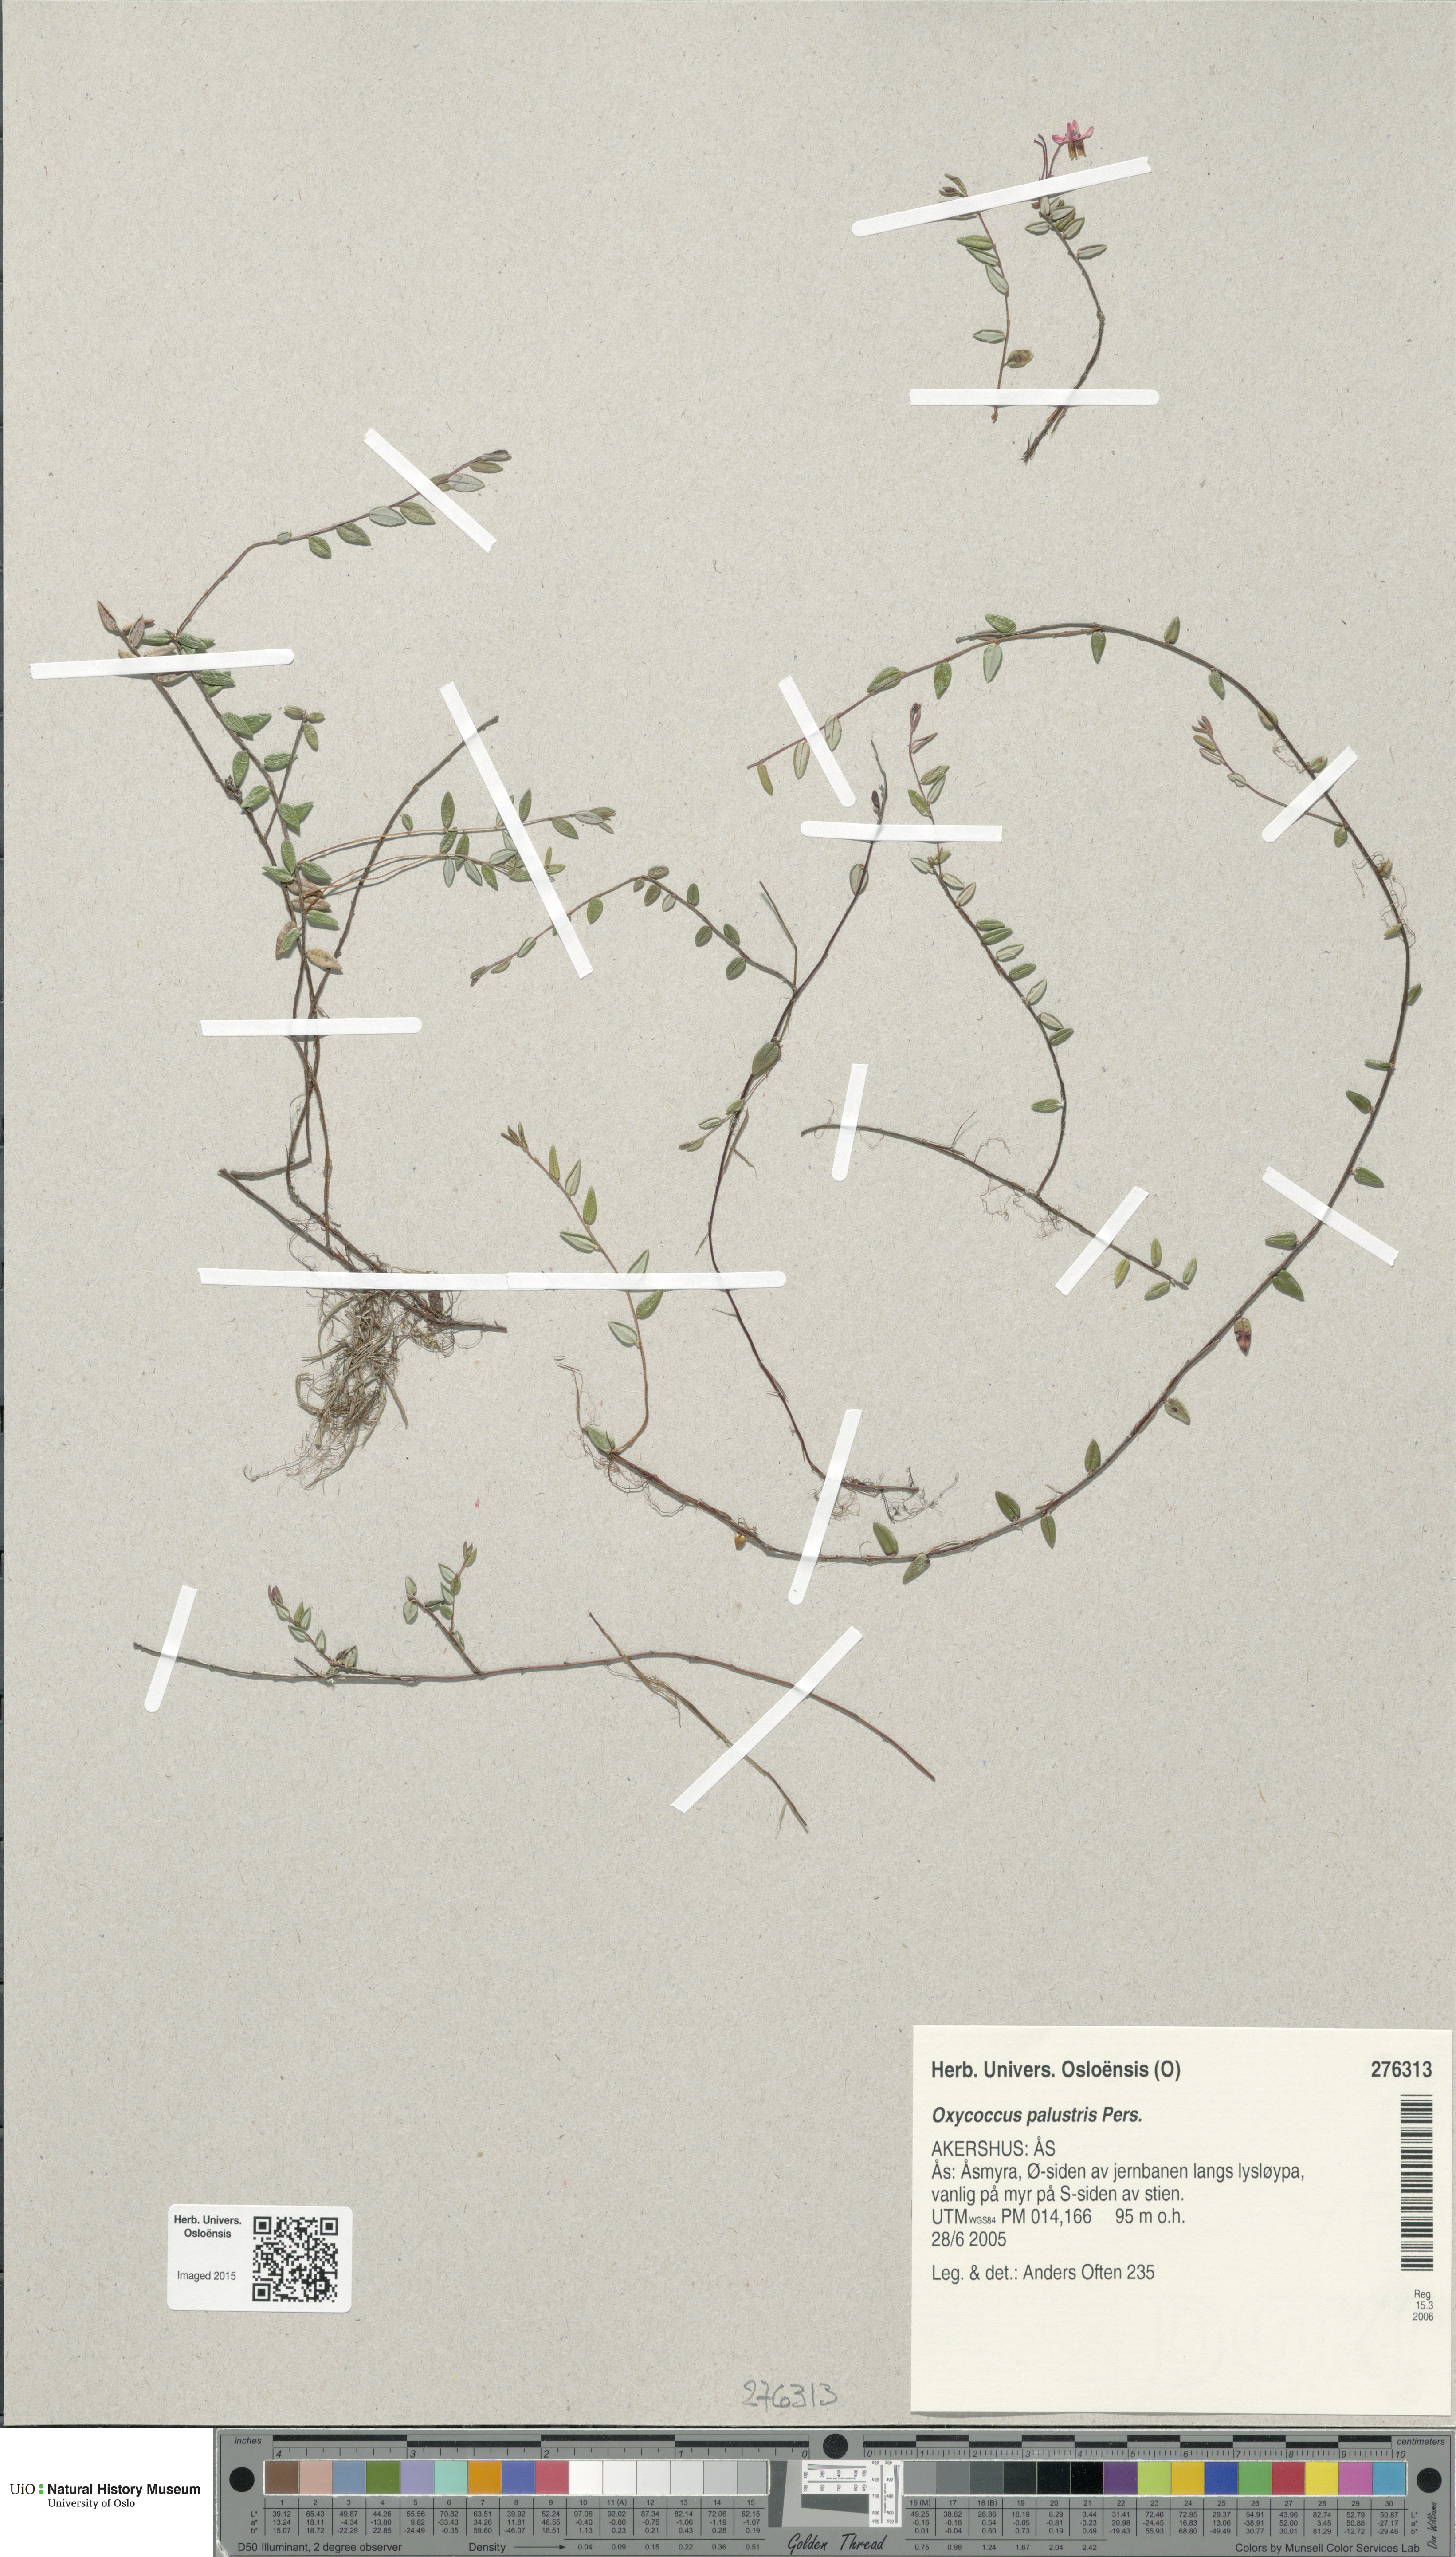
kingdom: Plantae
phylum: Tracheophyta
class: Magnoliopsida
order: Ericales
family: Ericaceae
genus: Vaccinium
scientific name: Vaccinium oxycoccos
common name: Cranberry
